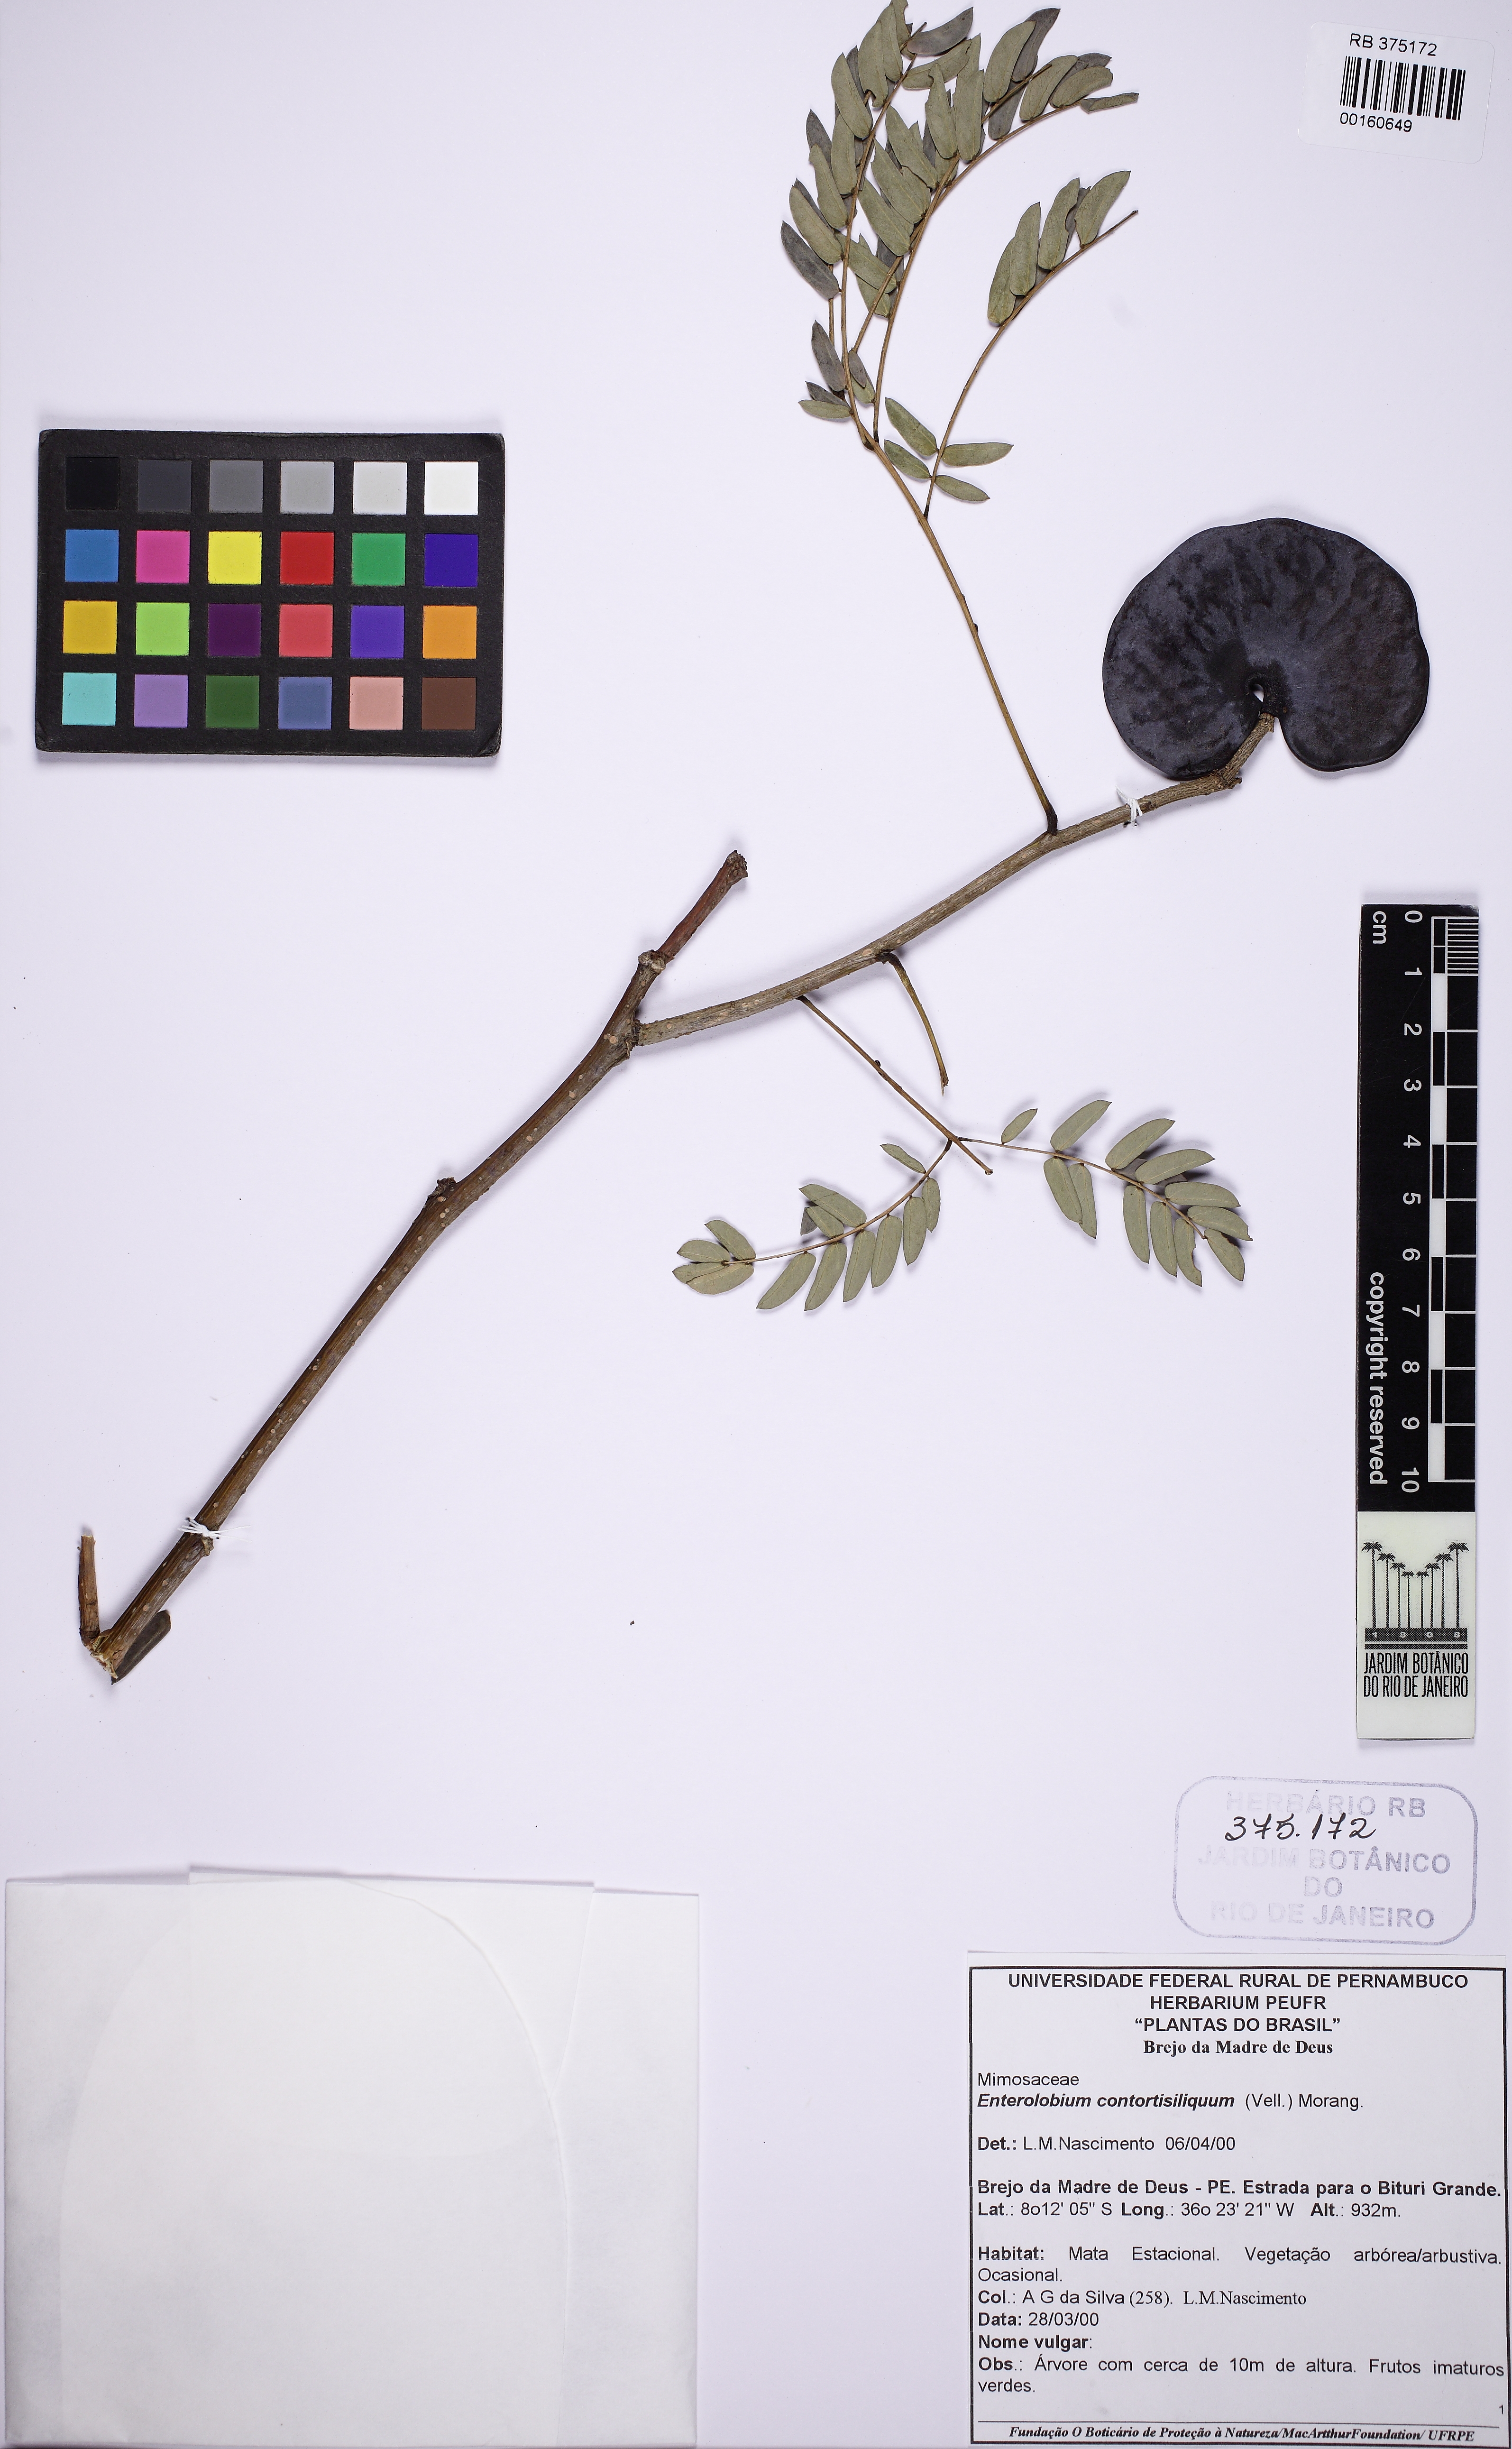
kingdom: Plantae
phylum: Tracheophyta
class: Magnoliopsida
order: Fabales
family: Fabaceae
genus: Enterolobium
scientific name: Enterolobium contortisiliquum
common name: Pacara earpod tree
